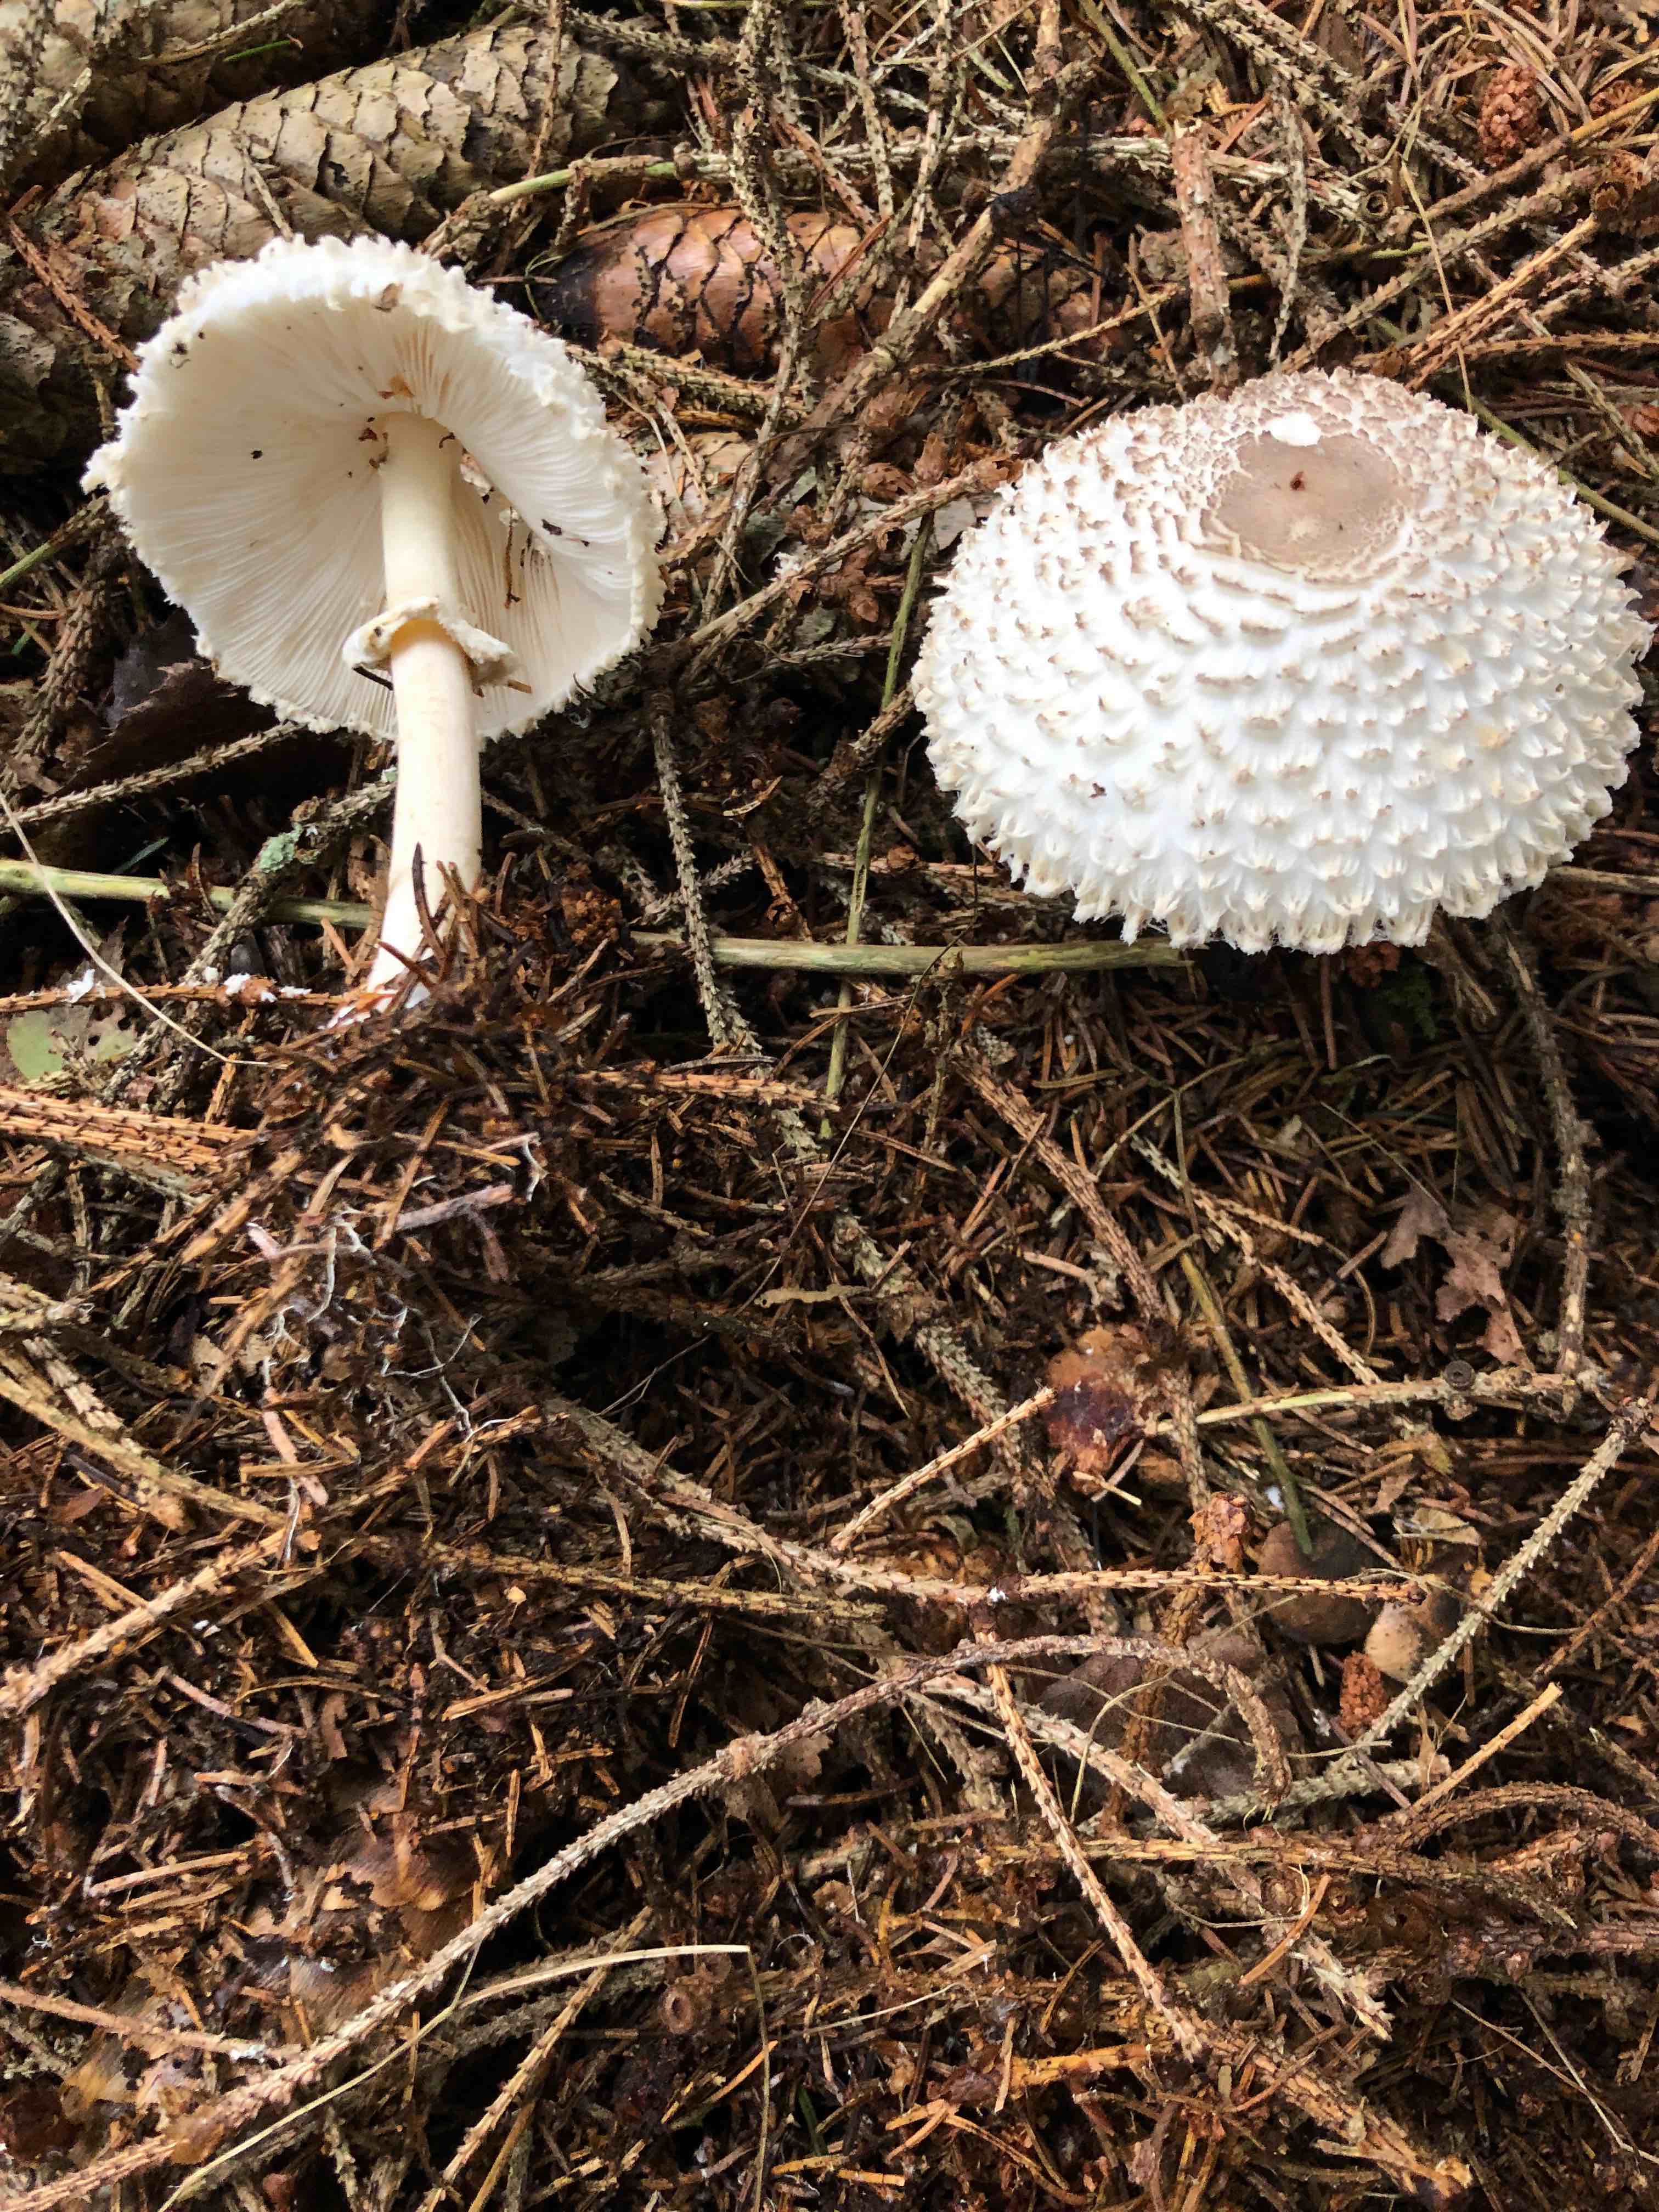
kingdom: Fungi
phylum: Basidiomycota
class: Agaricomycetes
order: Agaricales
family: Agaricaceae
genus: Leucoagaricus
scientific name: Leucoagaricus nympharum
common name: gran-silkehat
